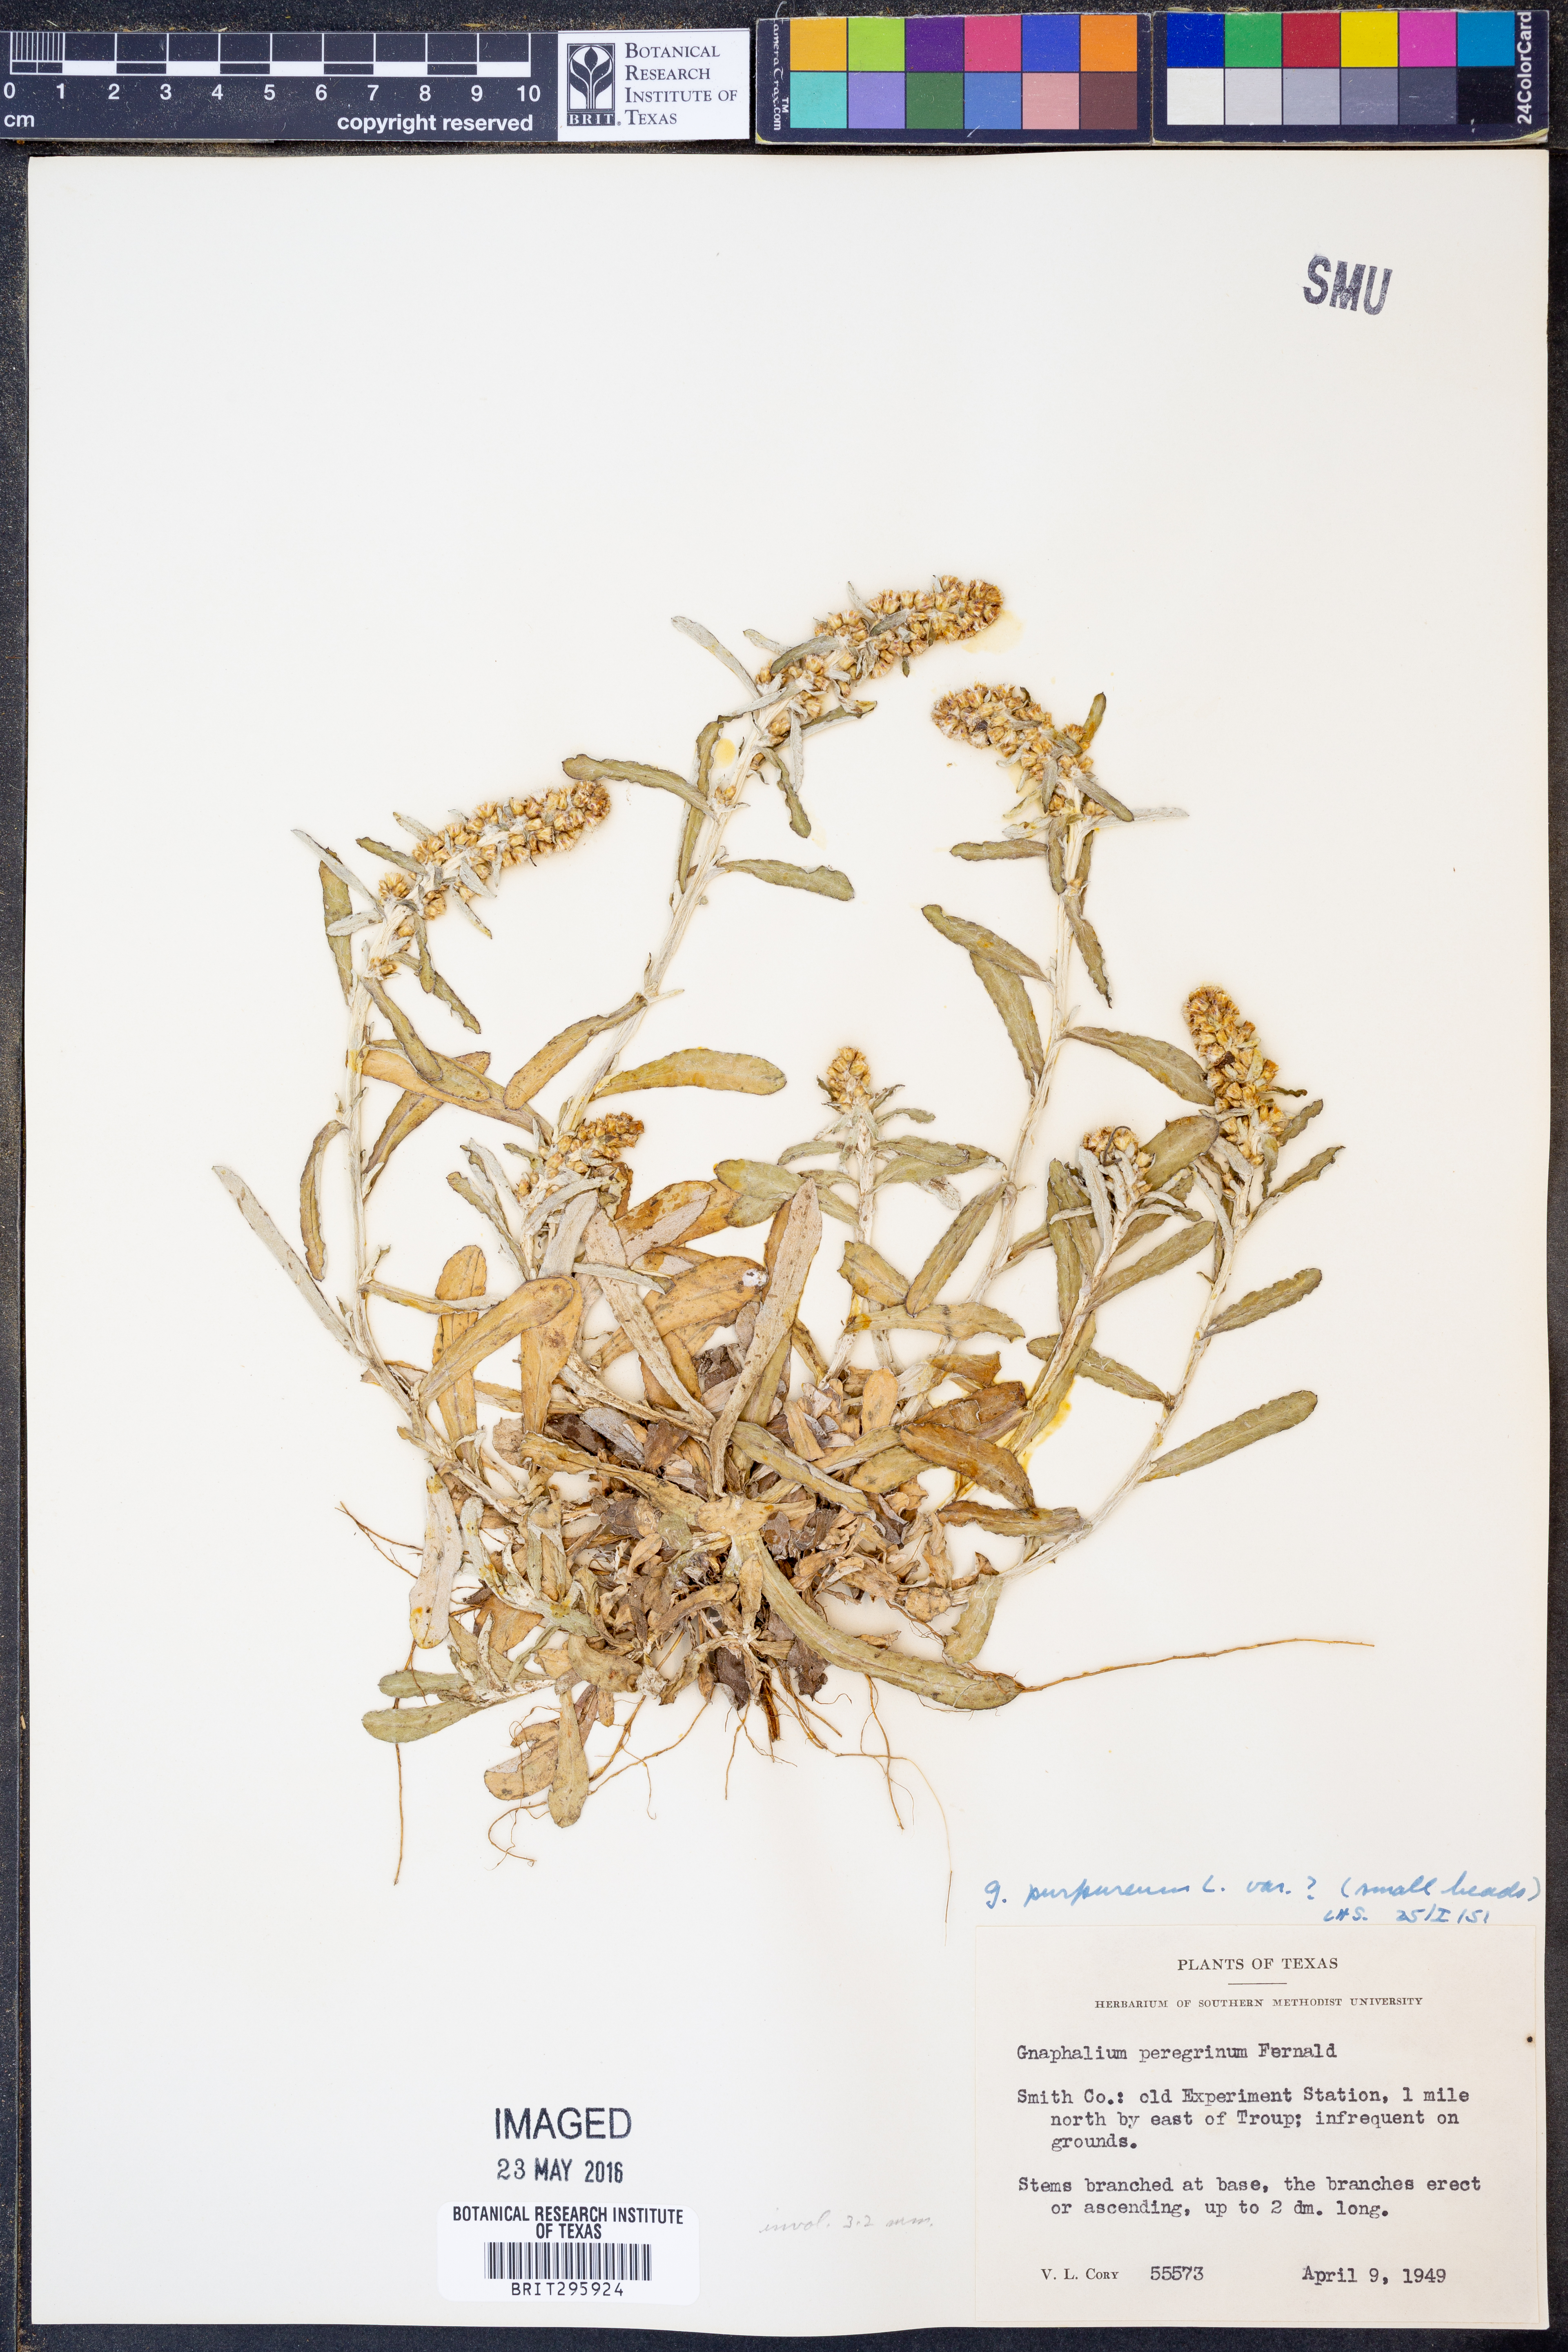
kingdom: Plantae
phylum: Tracheophyta
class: Magnoliopsida
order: Asterales
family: Asteraceae
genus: Gamochaeta
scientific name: Gamochaeta purpurea
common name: Purple cudweed
